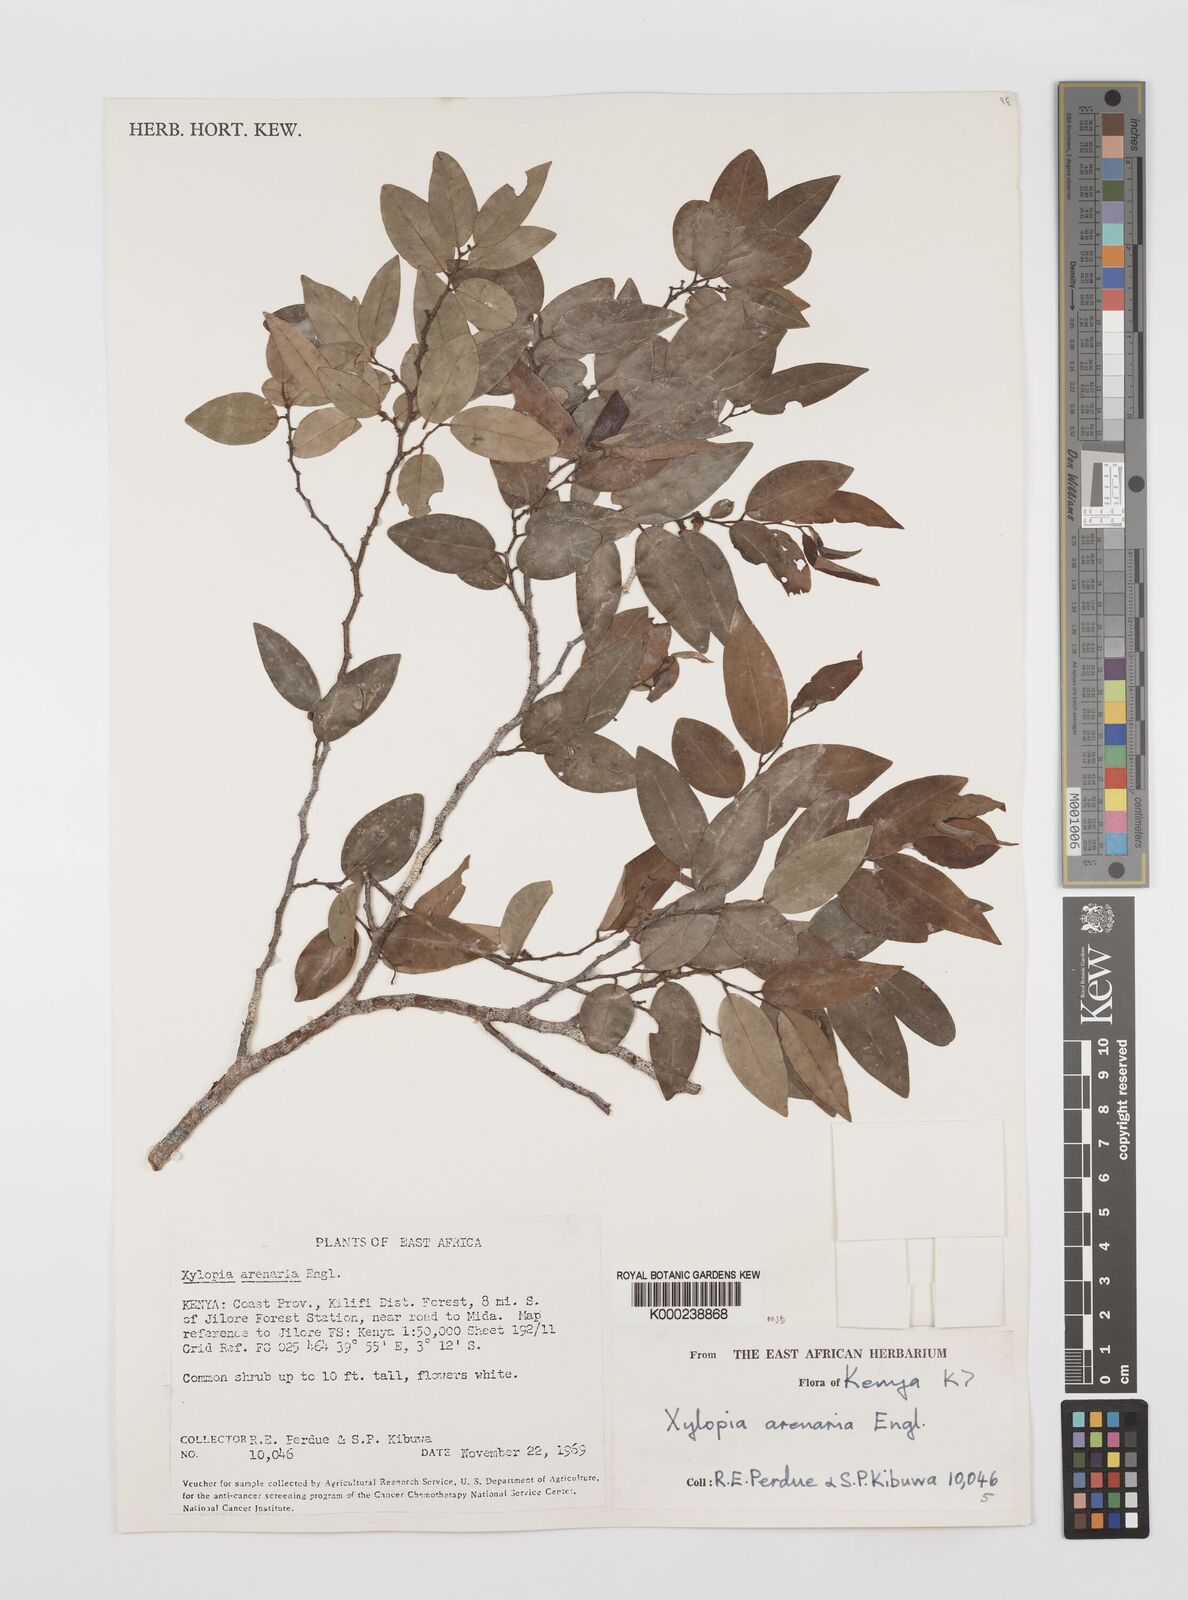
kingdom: Plantae
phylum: Tracheophyta
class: Magnoliopsida
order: Magnoliales
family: Annonaceae
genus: Xylopia
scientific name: Xylopia arenaria
